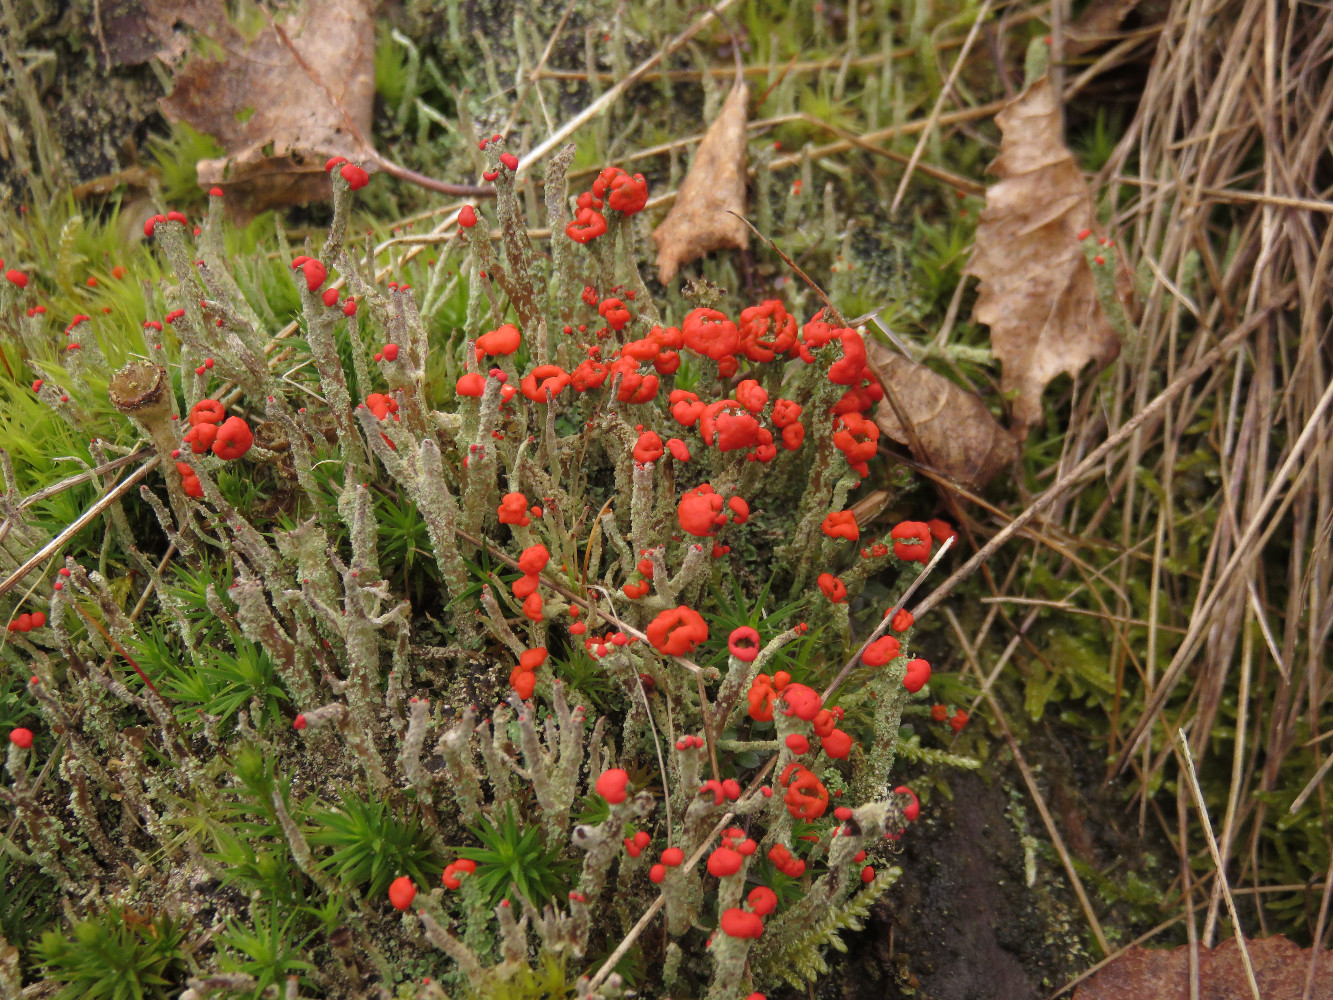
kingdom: Fungi
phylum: Ascomycota
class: Lecanoromycetes
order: Lecanorales
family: Cladoniaceae
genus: Cladonia
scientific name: Cladonia floerkeana
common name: lakrød bægerlav
